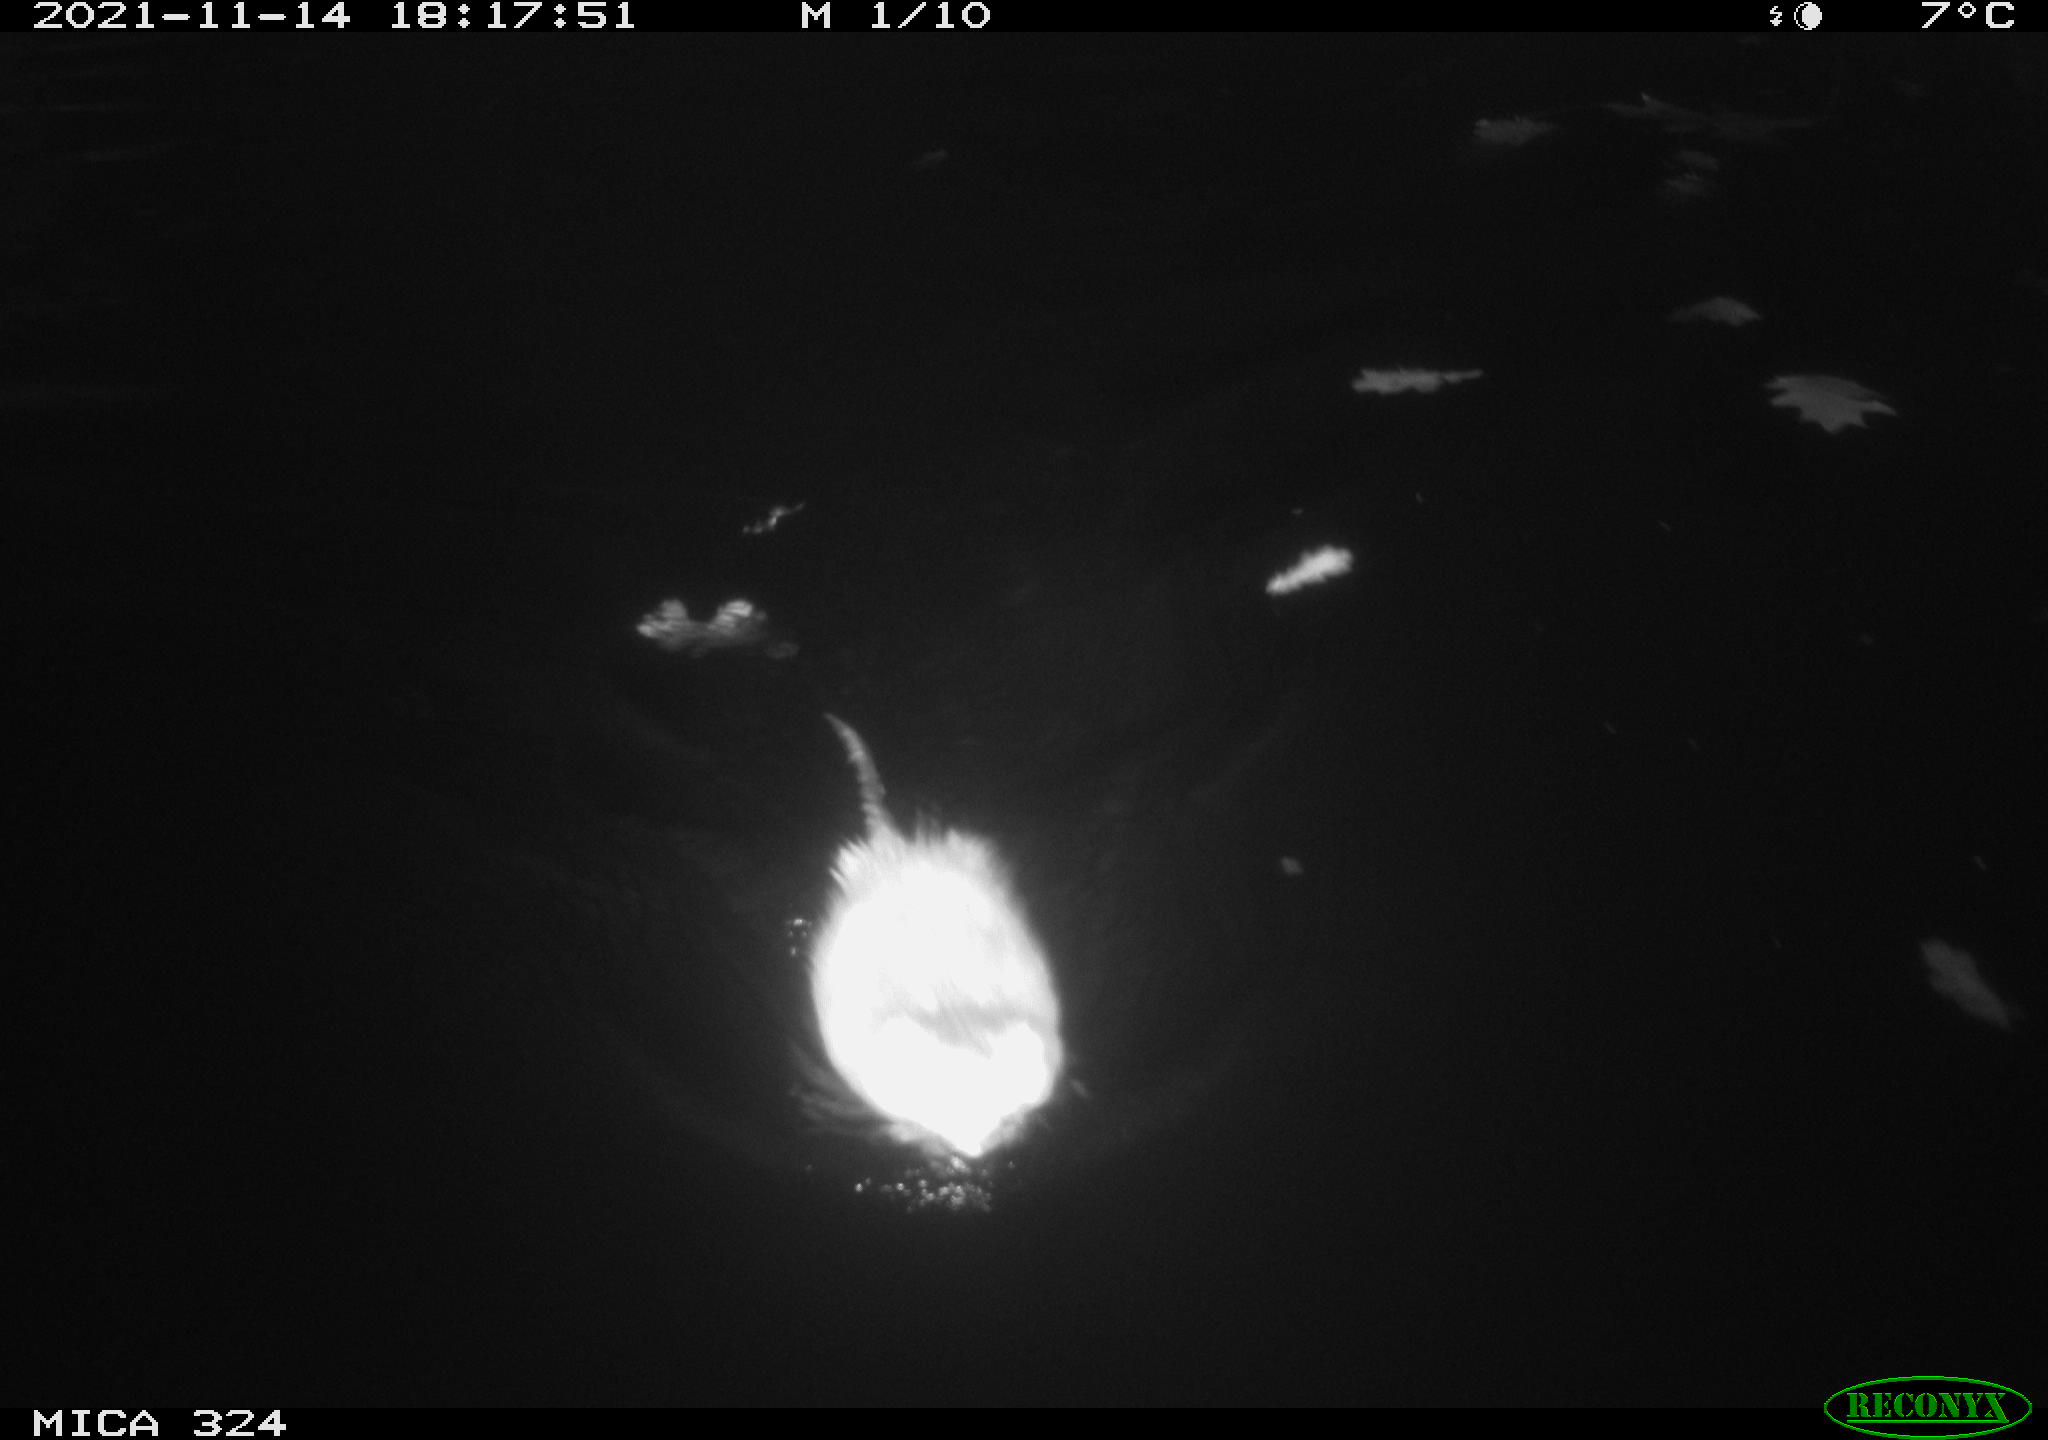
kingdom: Animalia
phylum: Chordata
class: Mammalia
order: Rodentia
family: Cricetidae
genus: Ondatra
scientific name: Ondatra zibethicus
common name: Muskrat
